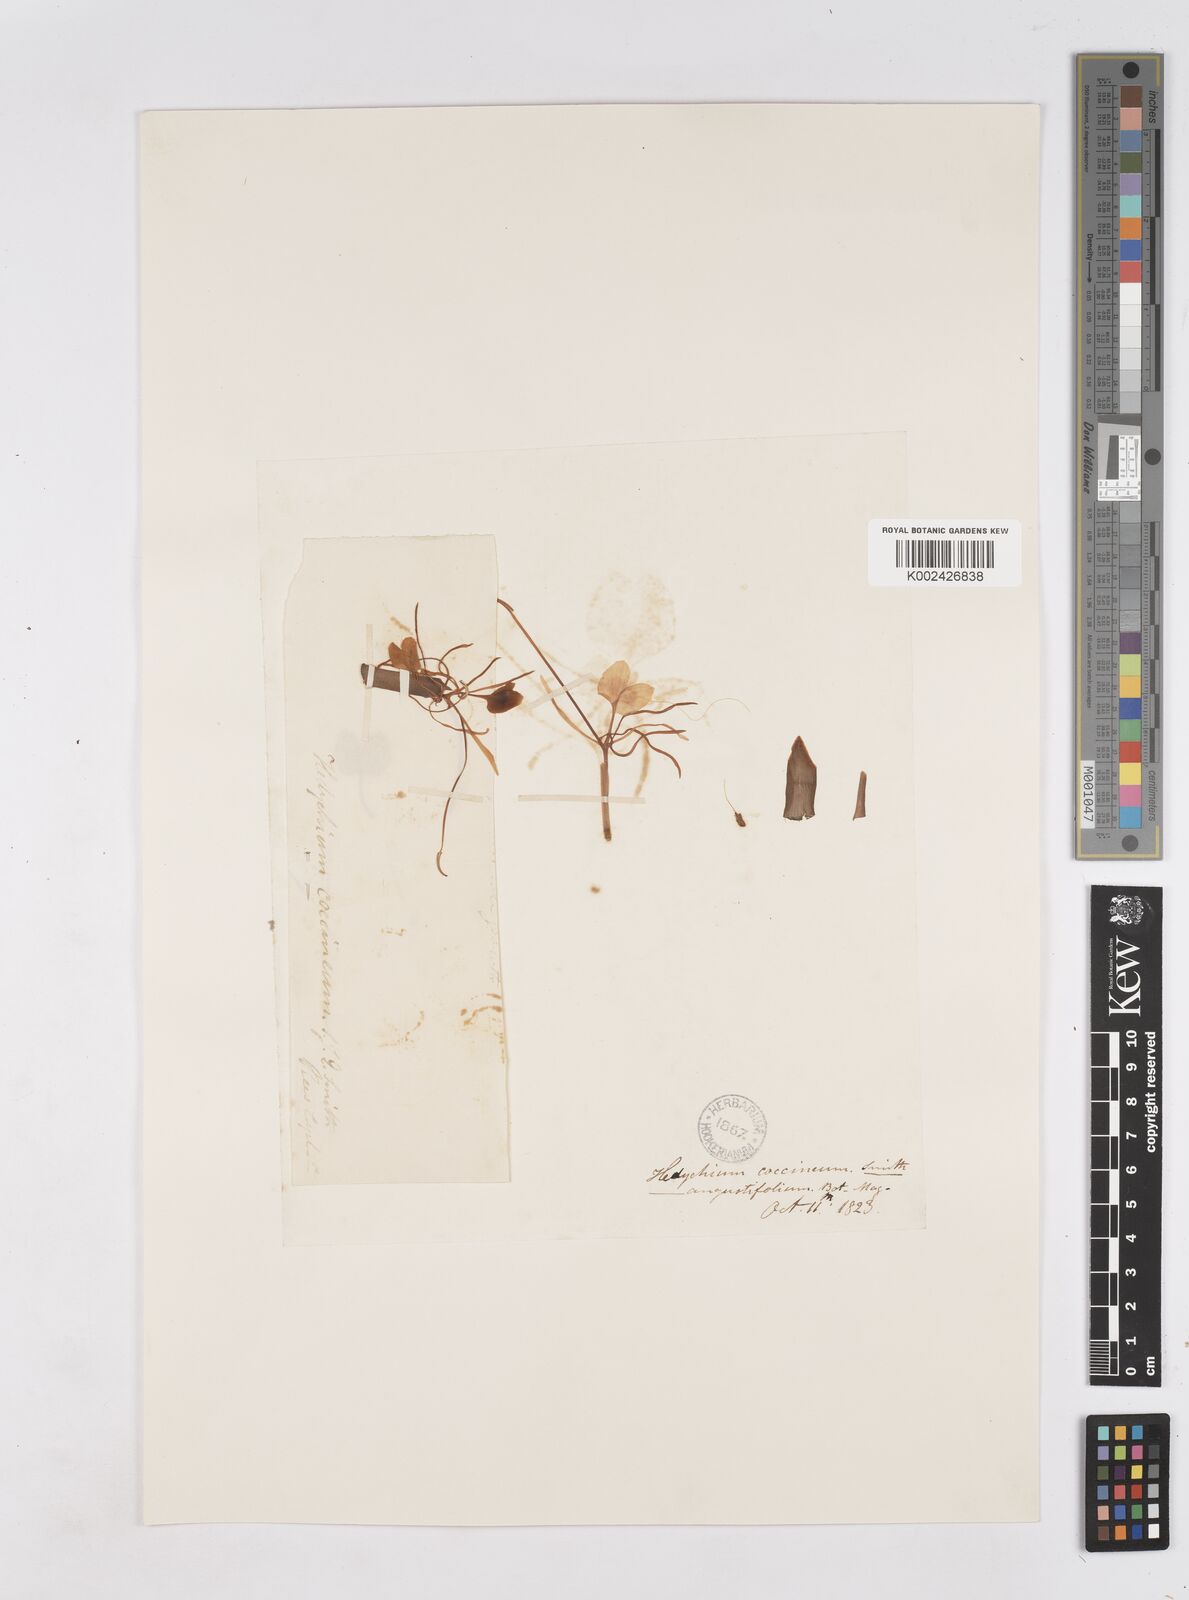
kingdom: Plantae
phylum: Tracheophyta
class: Liliopsida
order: Zingiberales
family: Zingiberaceae
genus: Hedychium
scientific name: Hedychium coccineum
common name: Red ginger-lily
